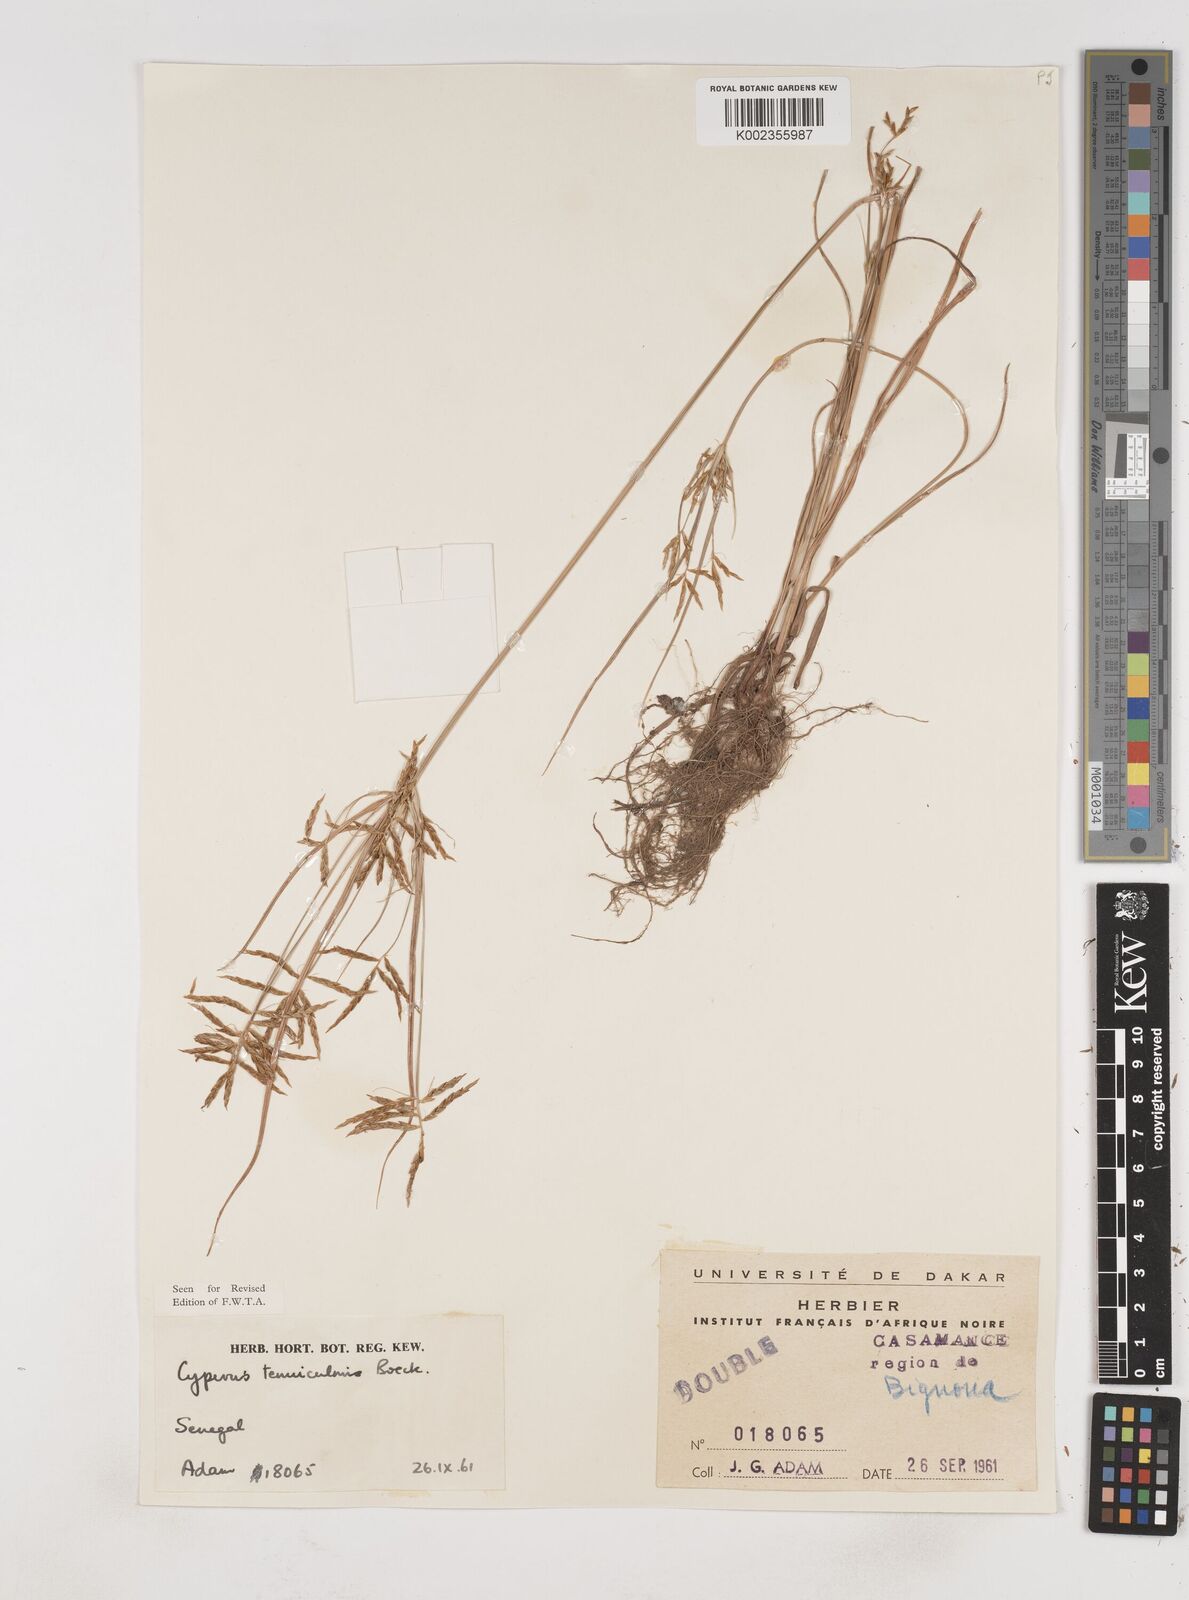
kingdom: Plantae
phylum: Tracheophyta
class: Liliopsida
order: Poales
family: Cyperaceae
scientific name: Cyperaceae
